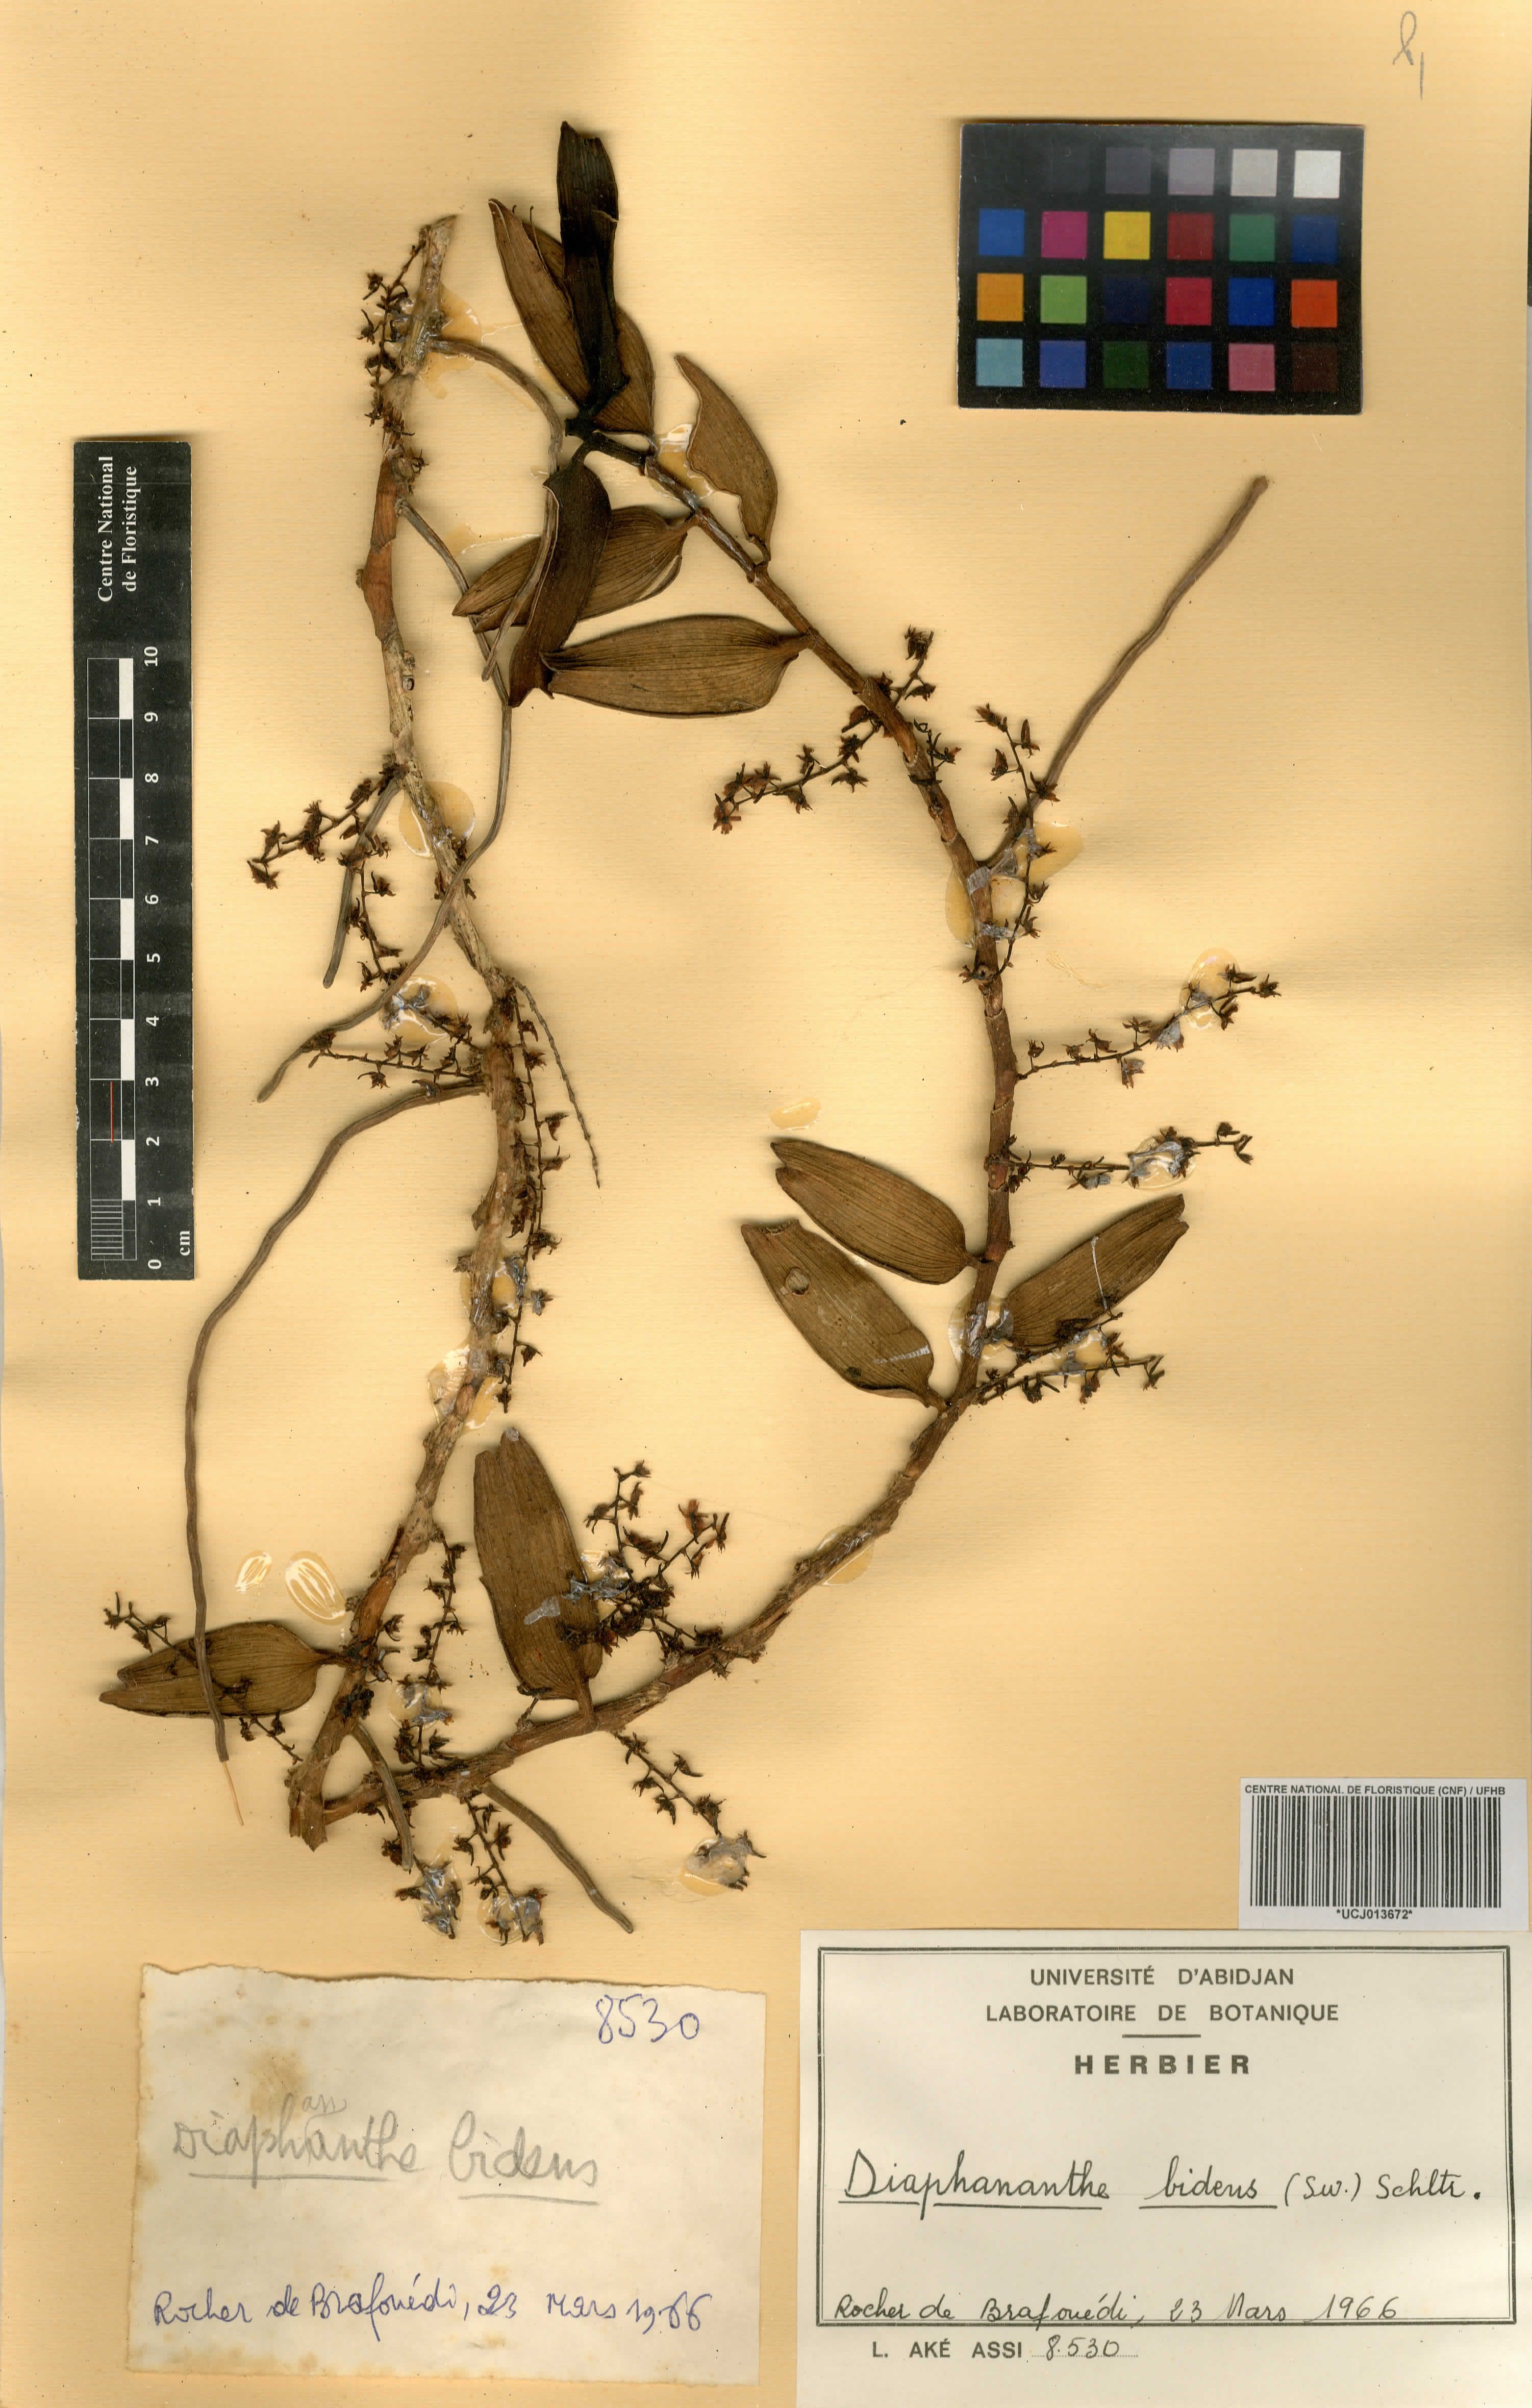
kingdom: Plantae
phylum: Tracheophyta
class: Liliopsida
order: Asparagales
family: Orchidaceae
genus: Diaphananthe
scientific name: Diaphananthe bidens
